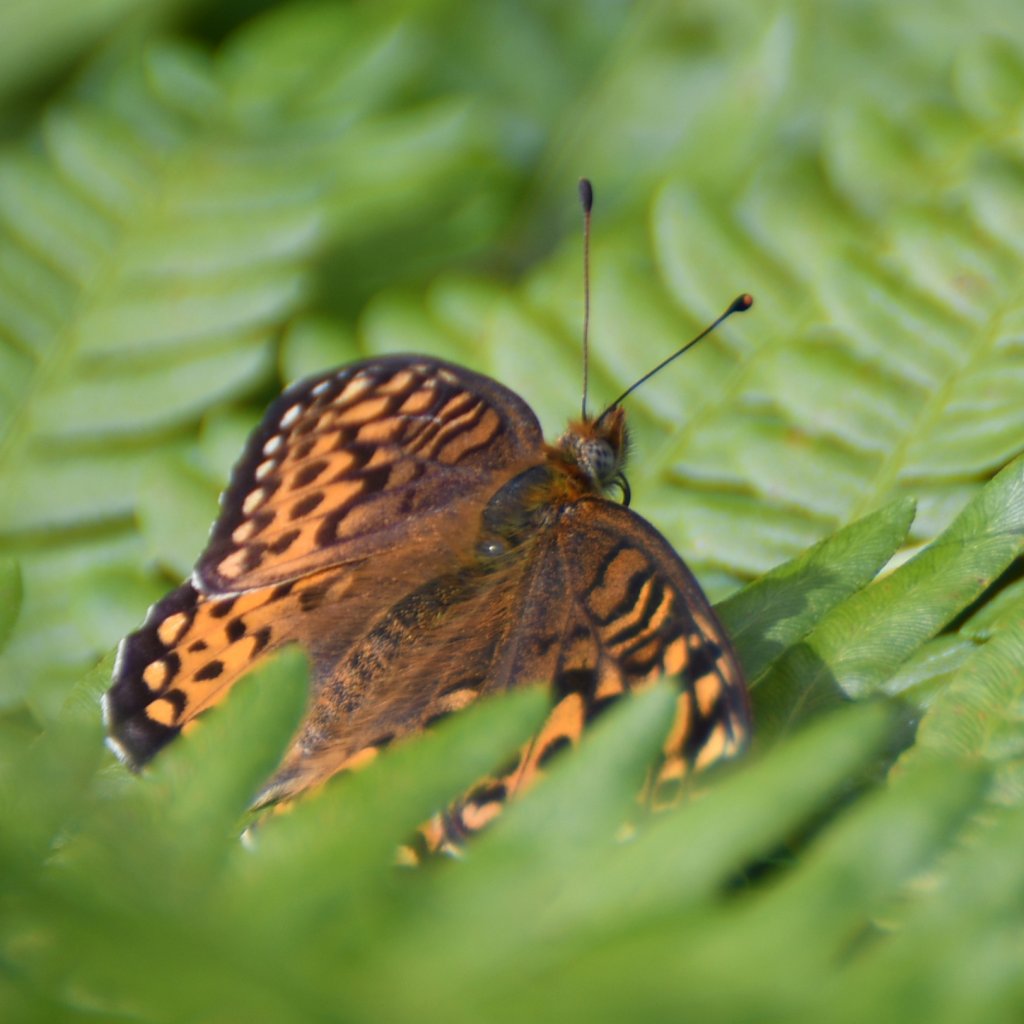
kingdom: Animalia
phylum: Arthropoda
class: Insecta
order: Lepidoptera
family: Nymphalidae
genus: Speyeria
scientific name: Speyeria atlantis
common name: Atlantis Fritillary
